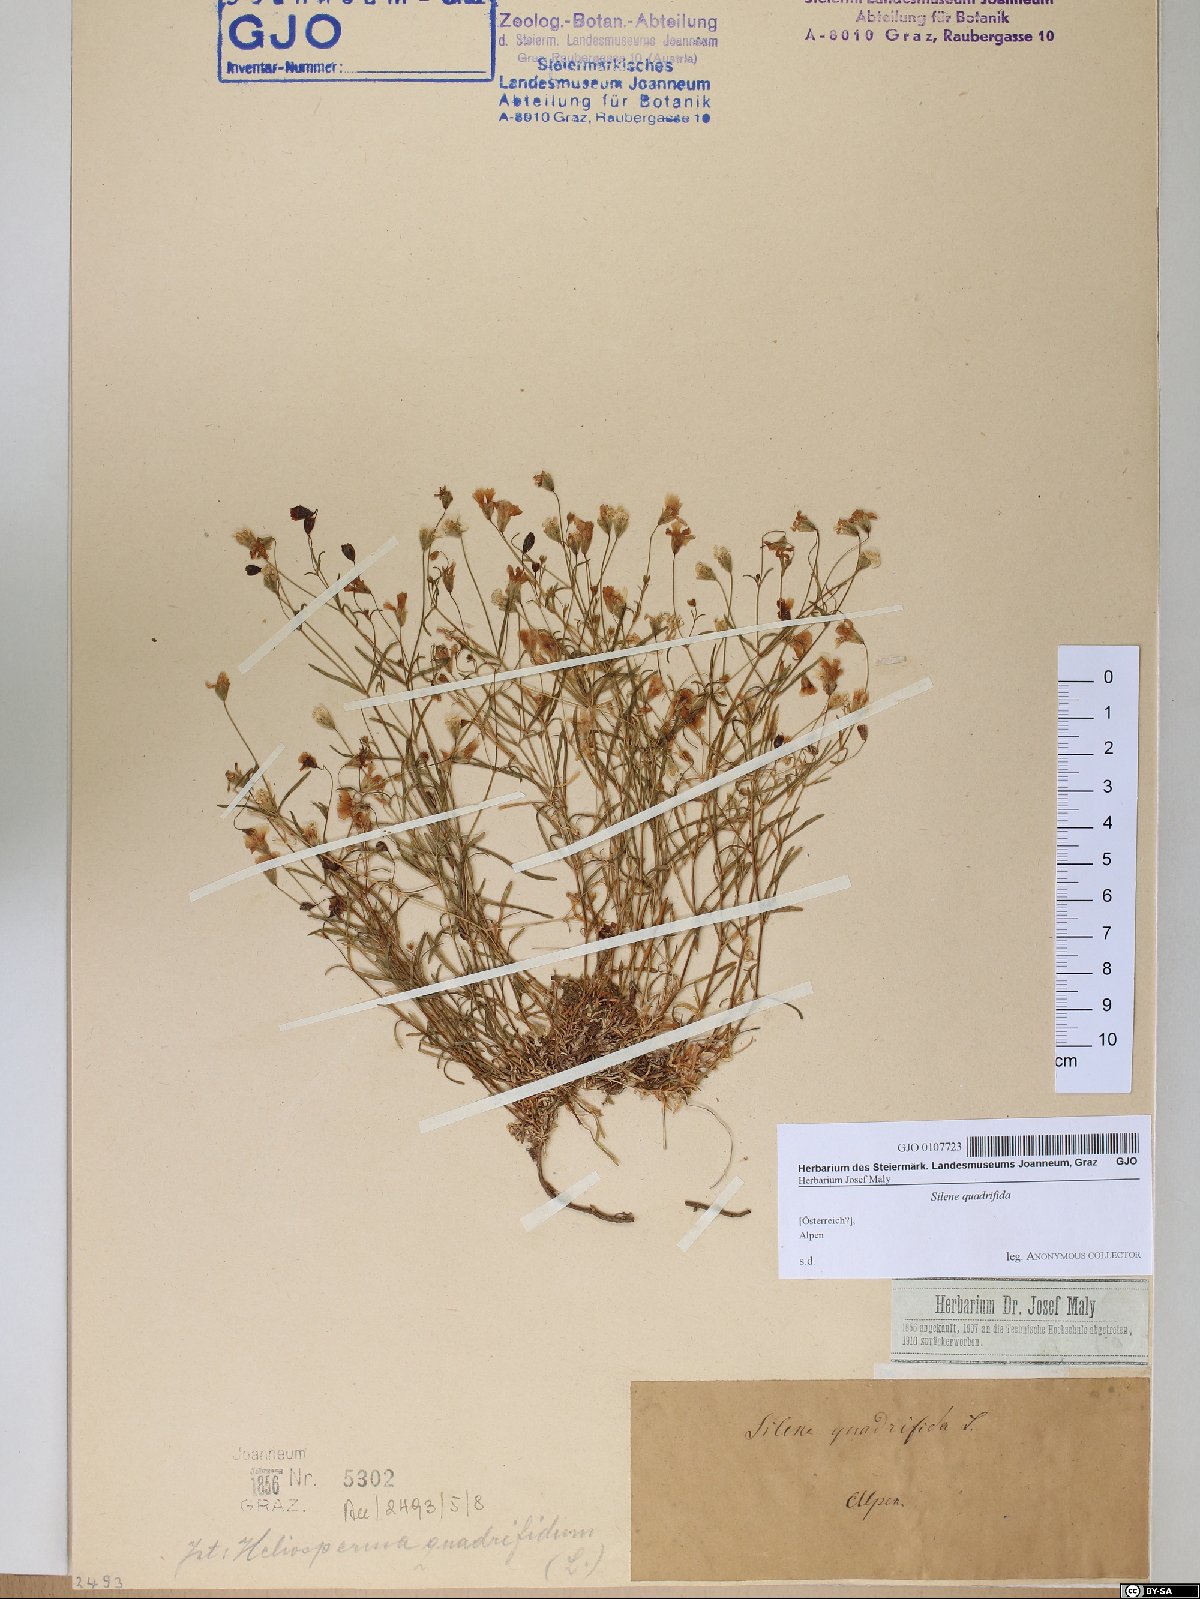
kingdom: Plantae
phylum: Tracheophyta
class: Magnoliopsida
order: Caryophyllales
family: Caryophyllaceae
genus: Heliosperma
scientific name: Heliosperma alpestre
